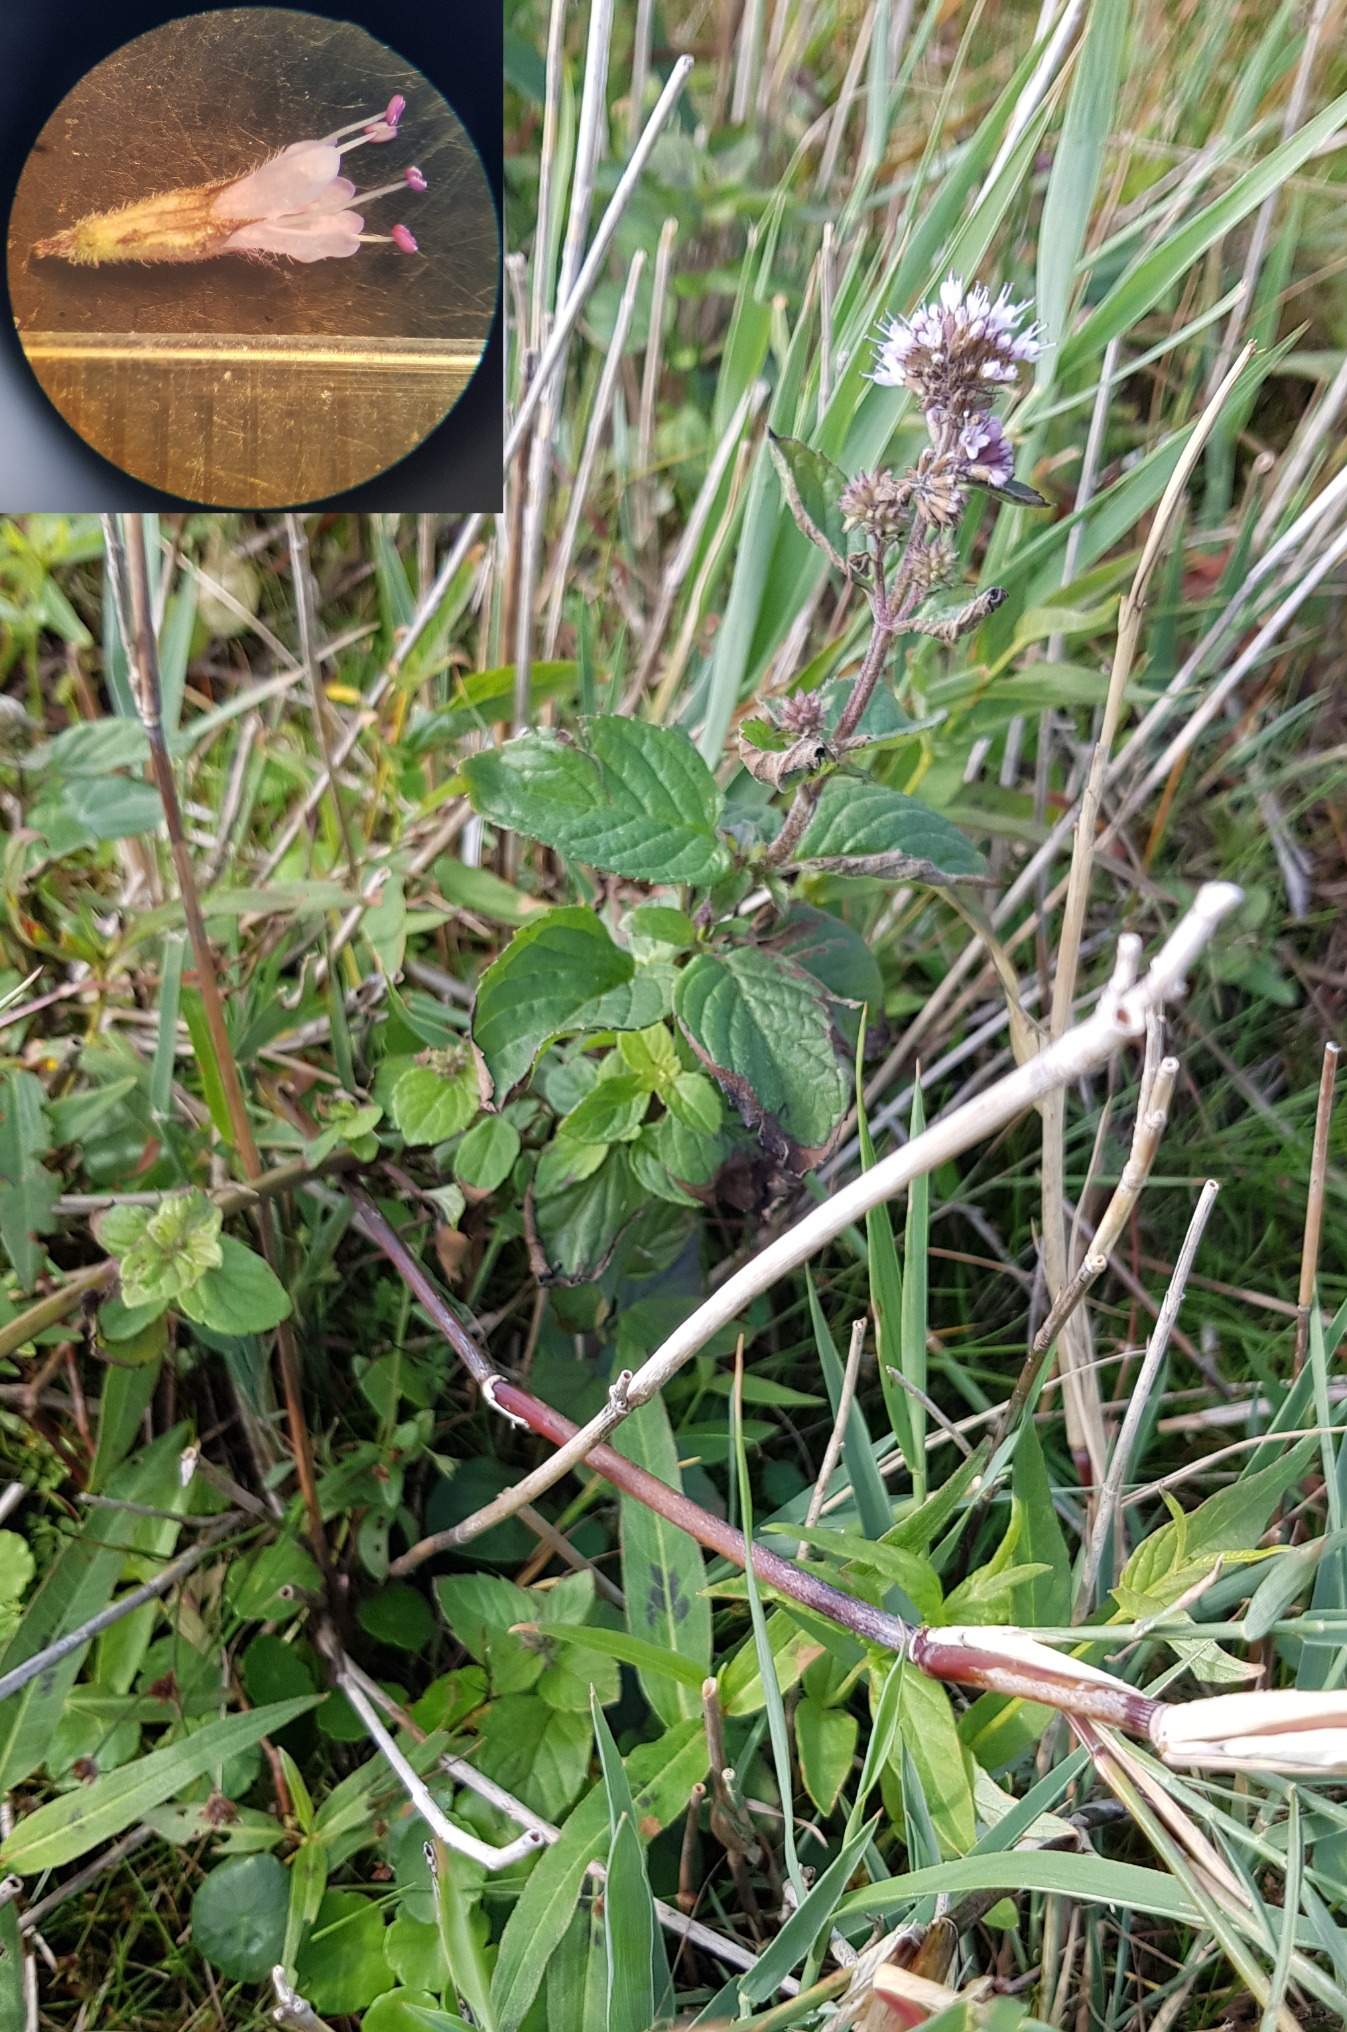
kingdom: Plantae
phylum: Tracheophyta
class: Magnoliopsida
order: Lamiales
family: Lamiaceae
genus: Mentha
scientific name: Mentha aquatica
